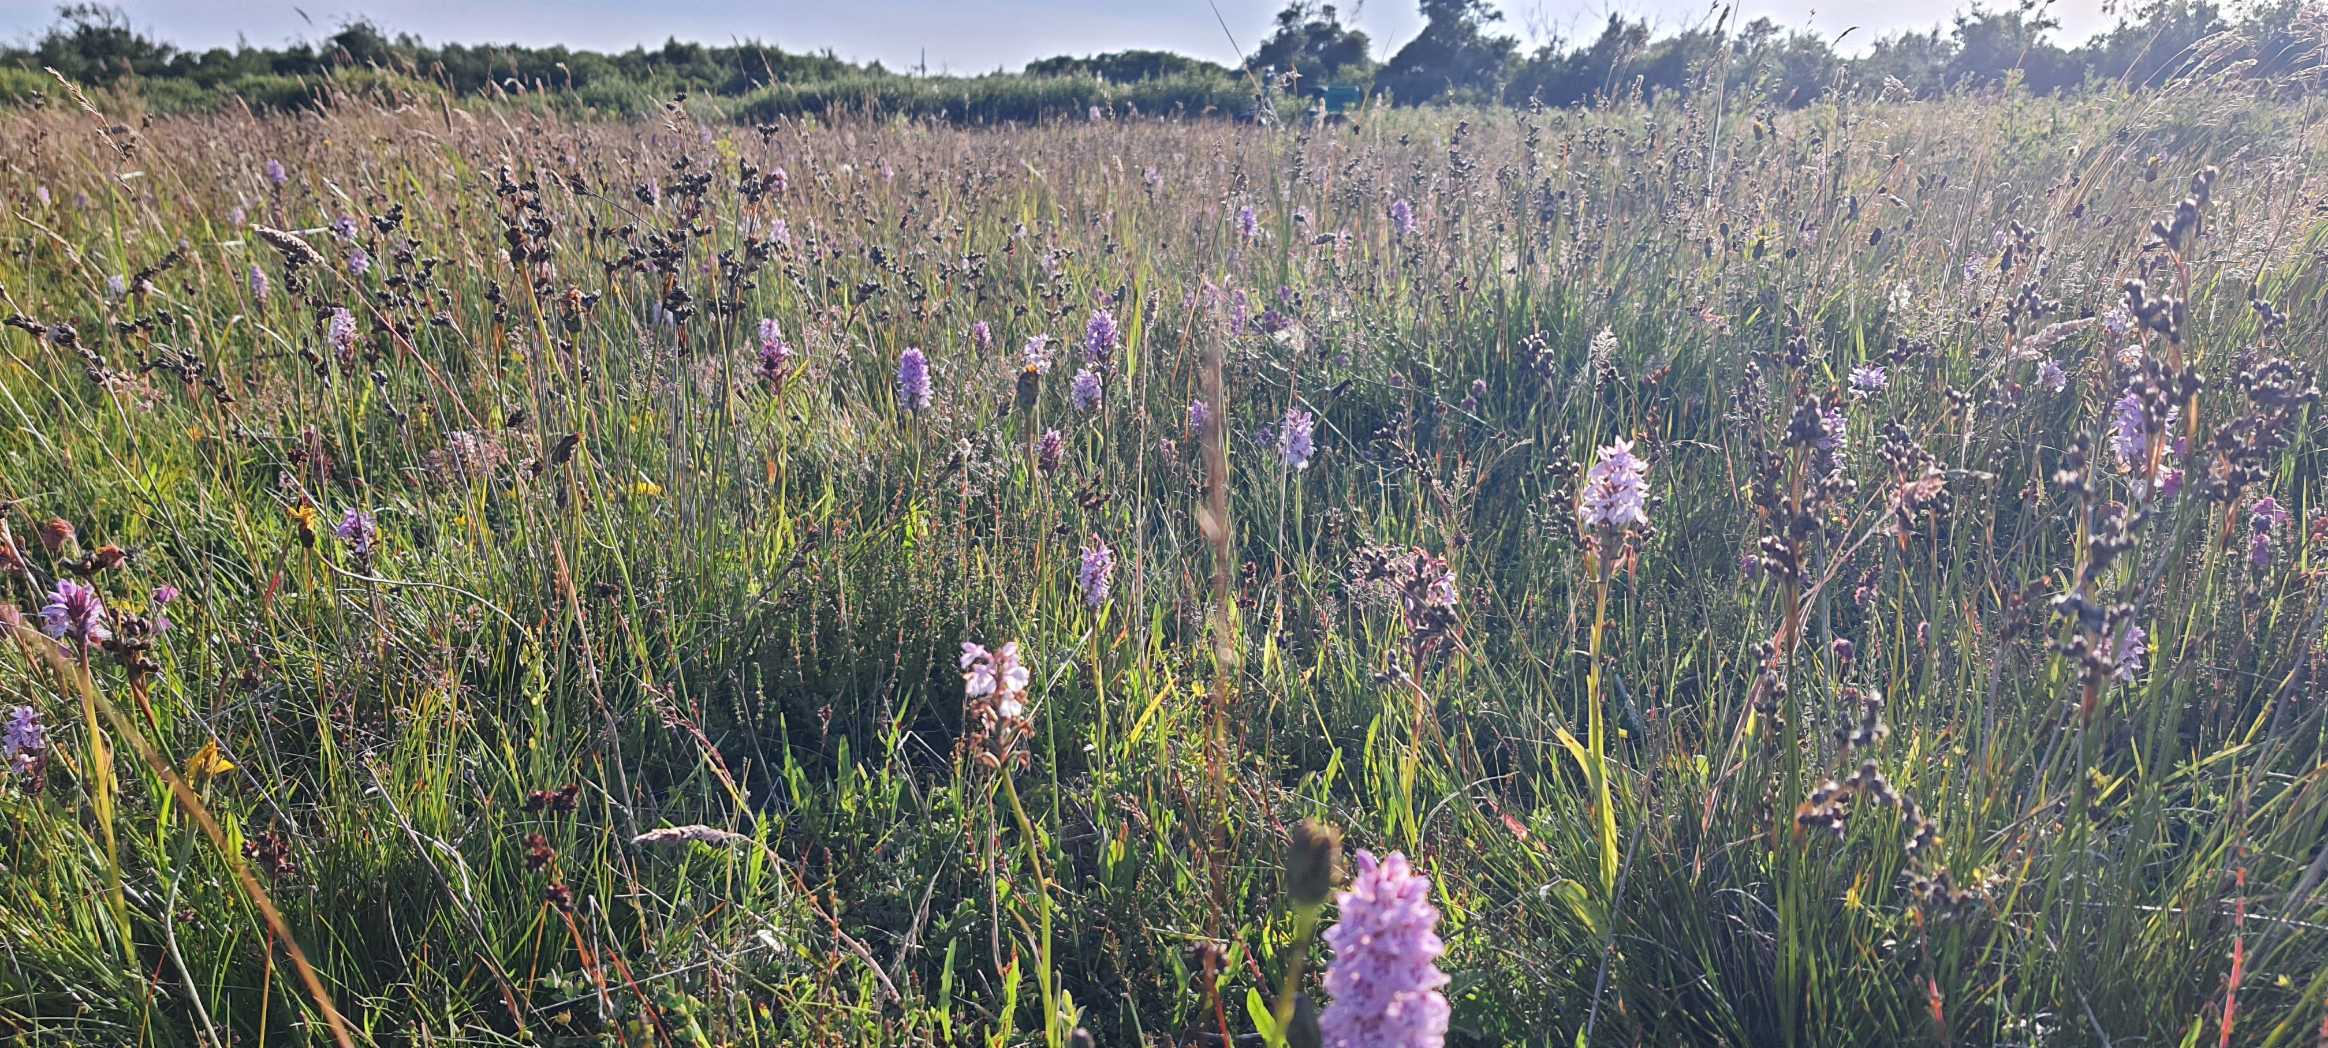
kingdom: Plantae
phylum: Tracheophyta
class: Liliopsida
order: Asparagales
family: Orchidaceae
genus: Dactylorhiza
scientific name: Dactylorhiza maculata
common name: Plettet gøgeurt (underart)
